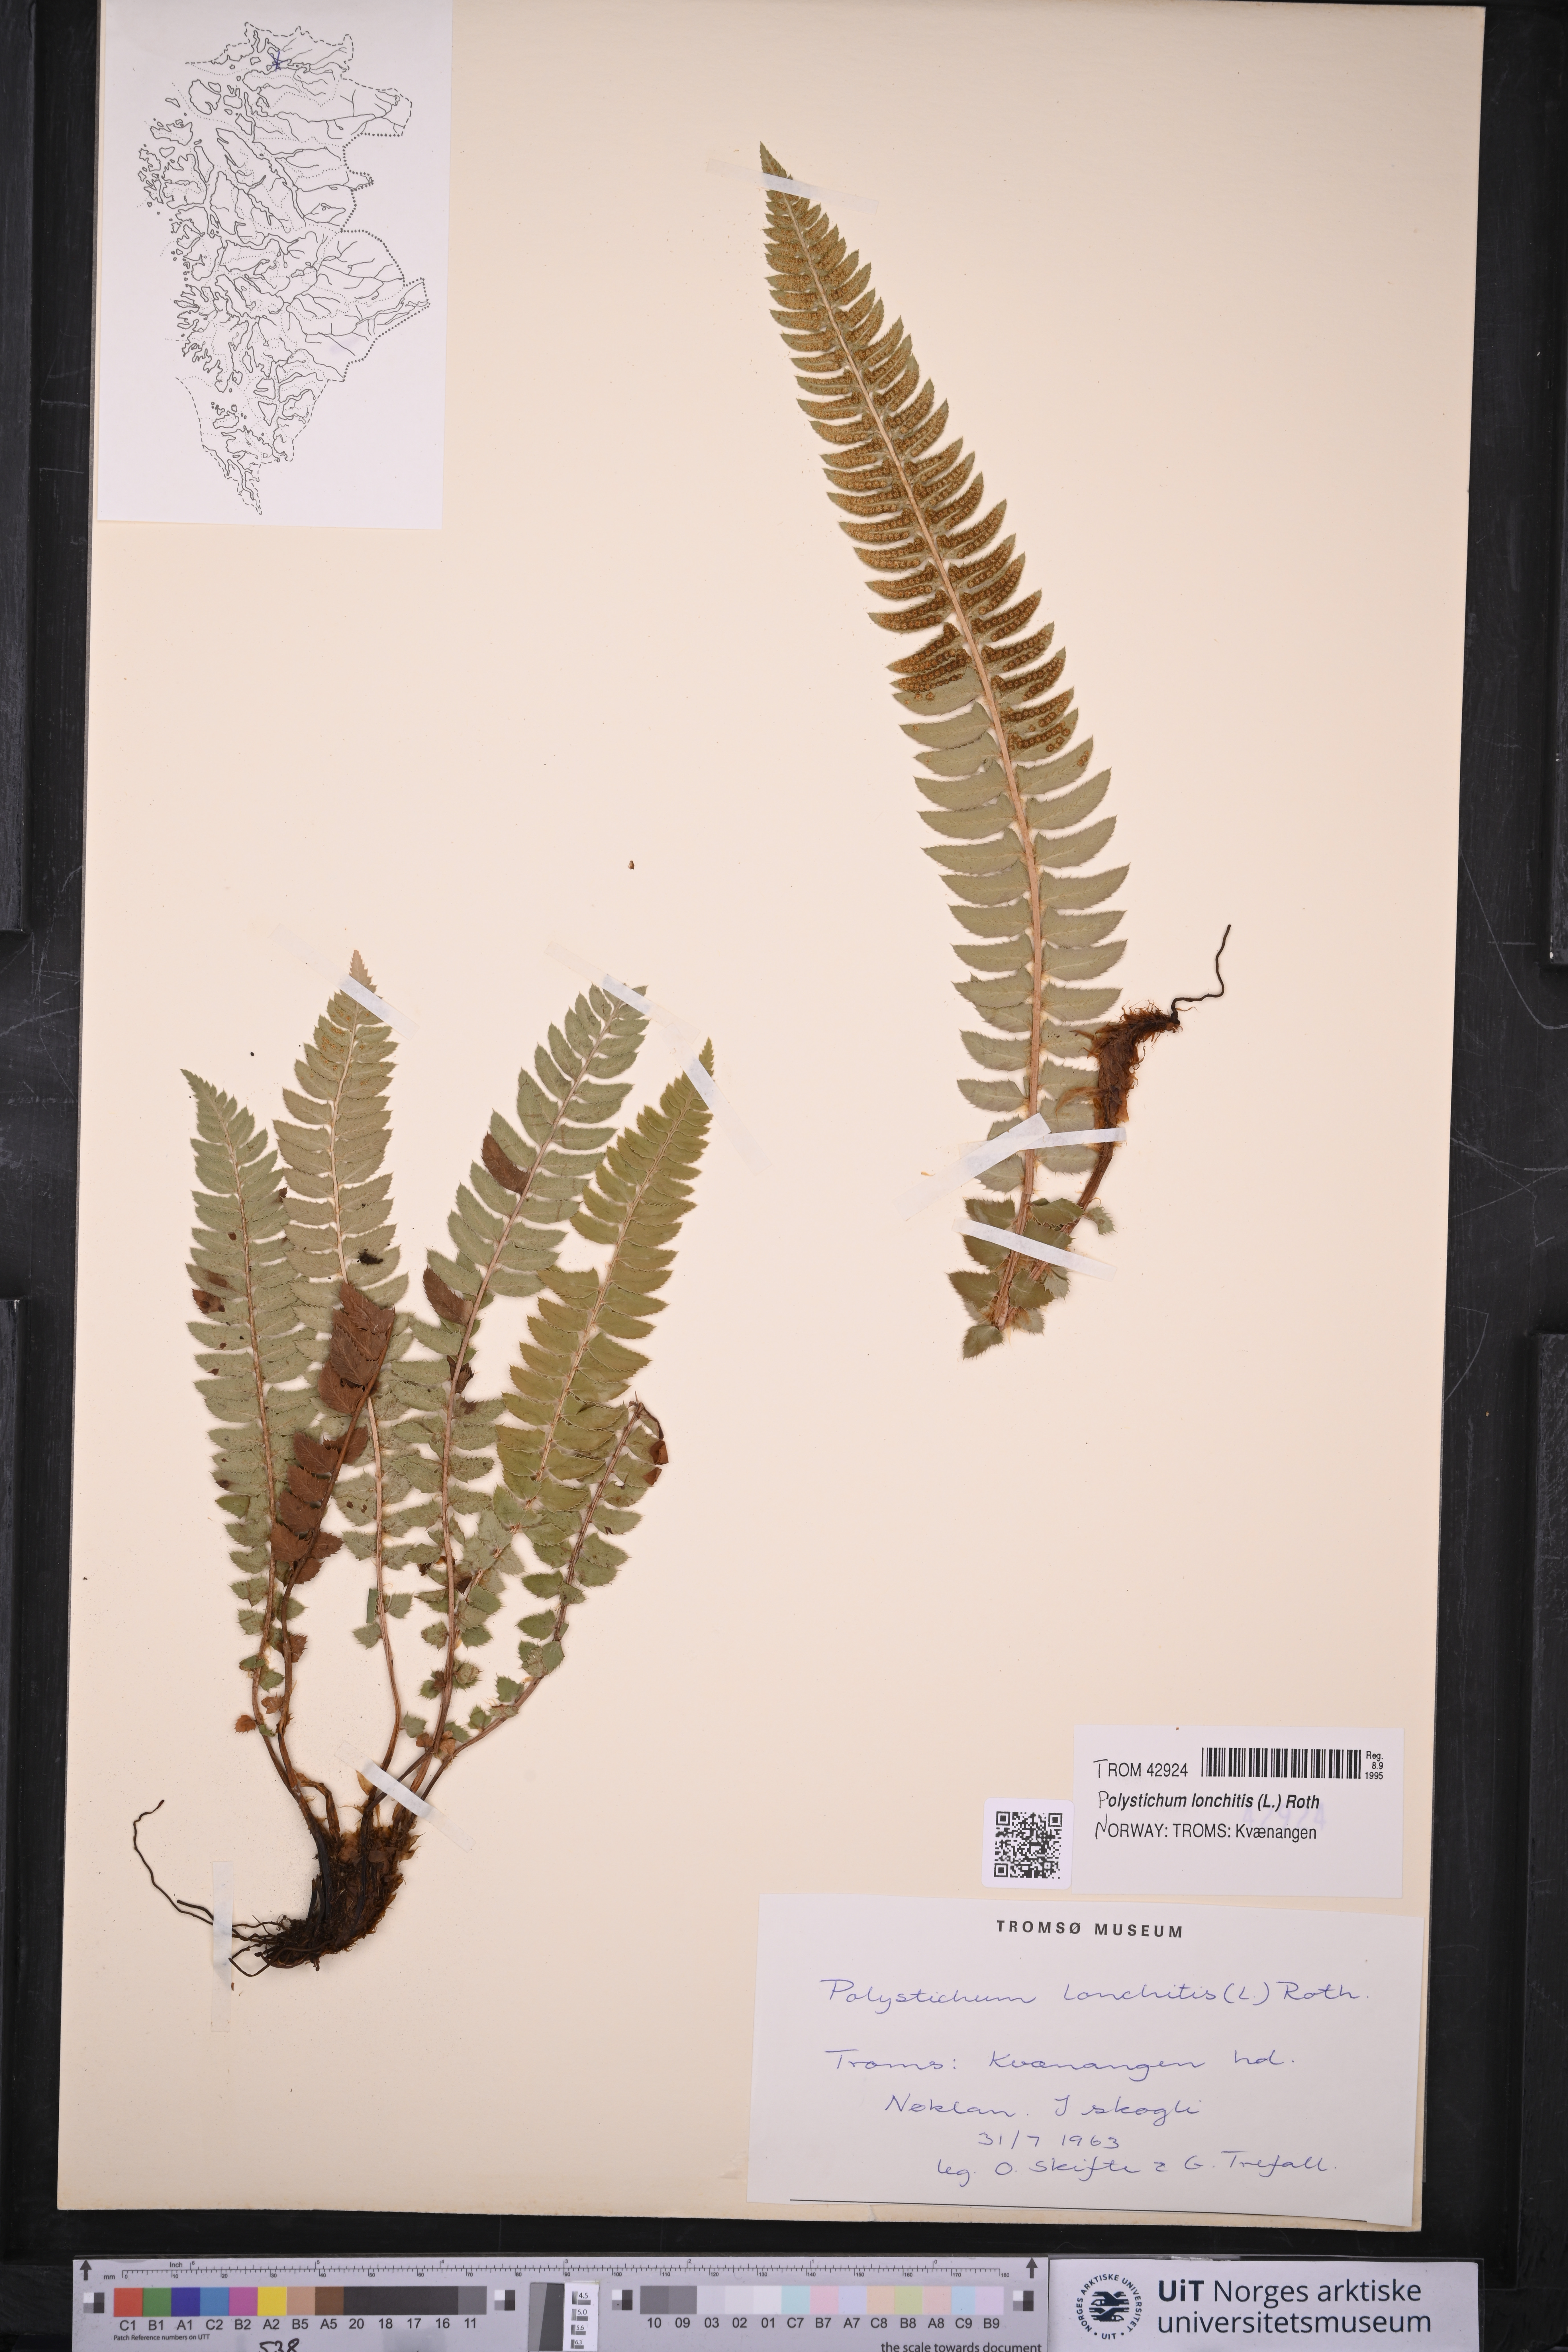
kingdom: Plantae
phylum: Tracheophyta
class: Polypodiopsida
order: Polypodiales
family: Dryopteridaceae
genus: Polystichum
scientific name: Polystichum lonchitis
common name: Holly fern
